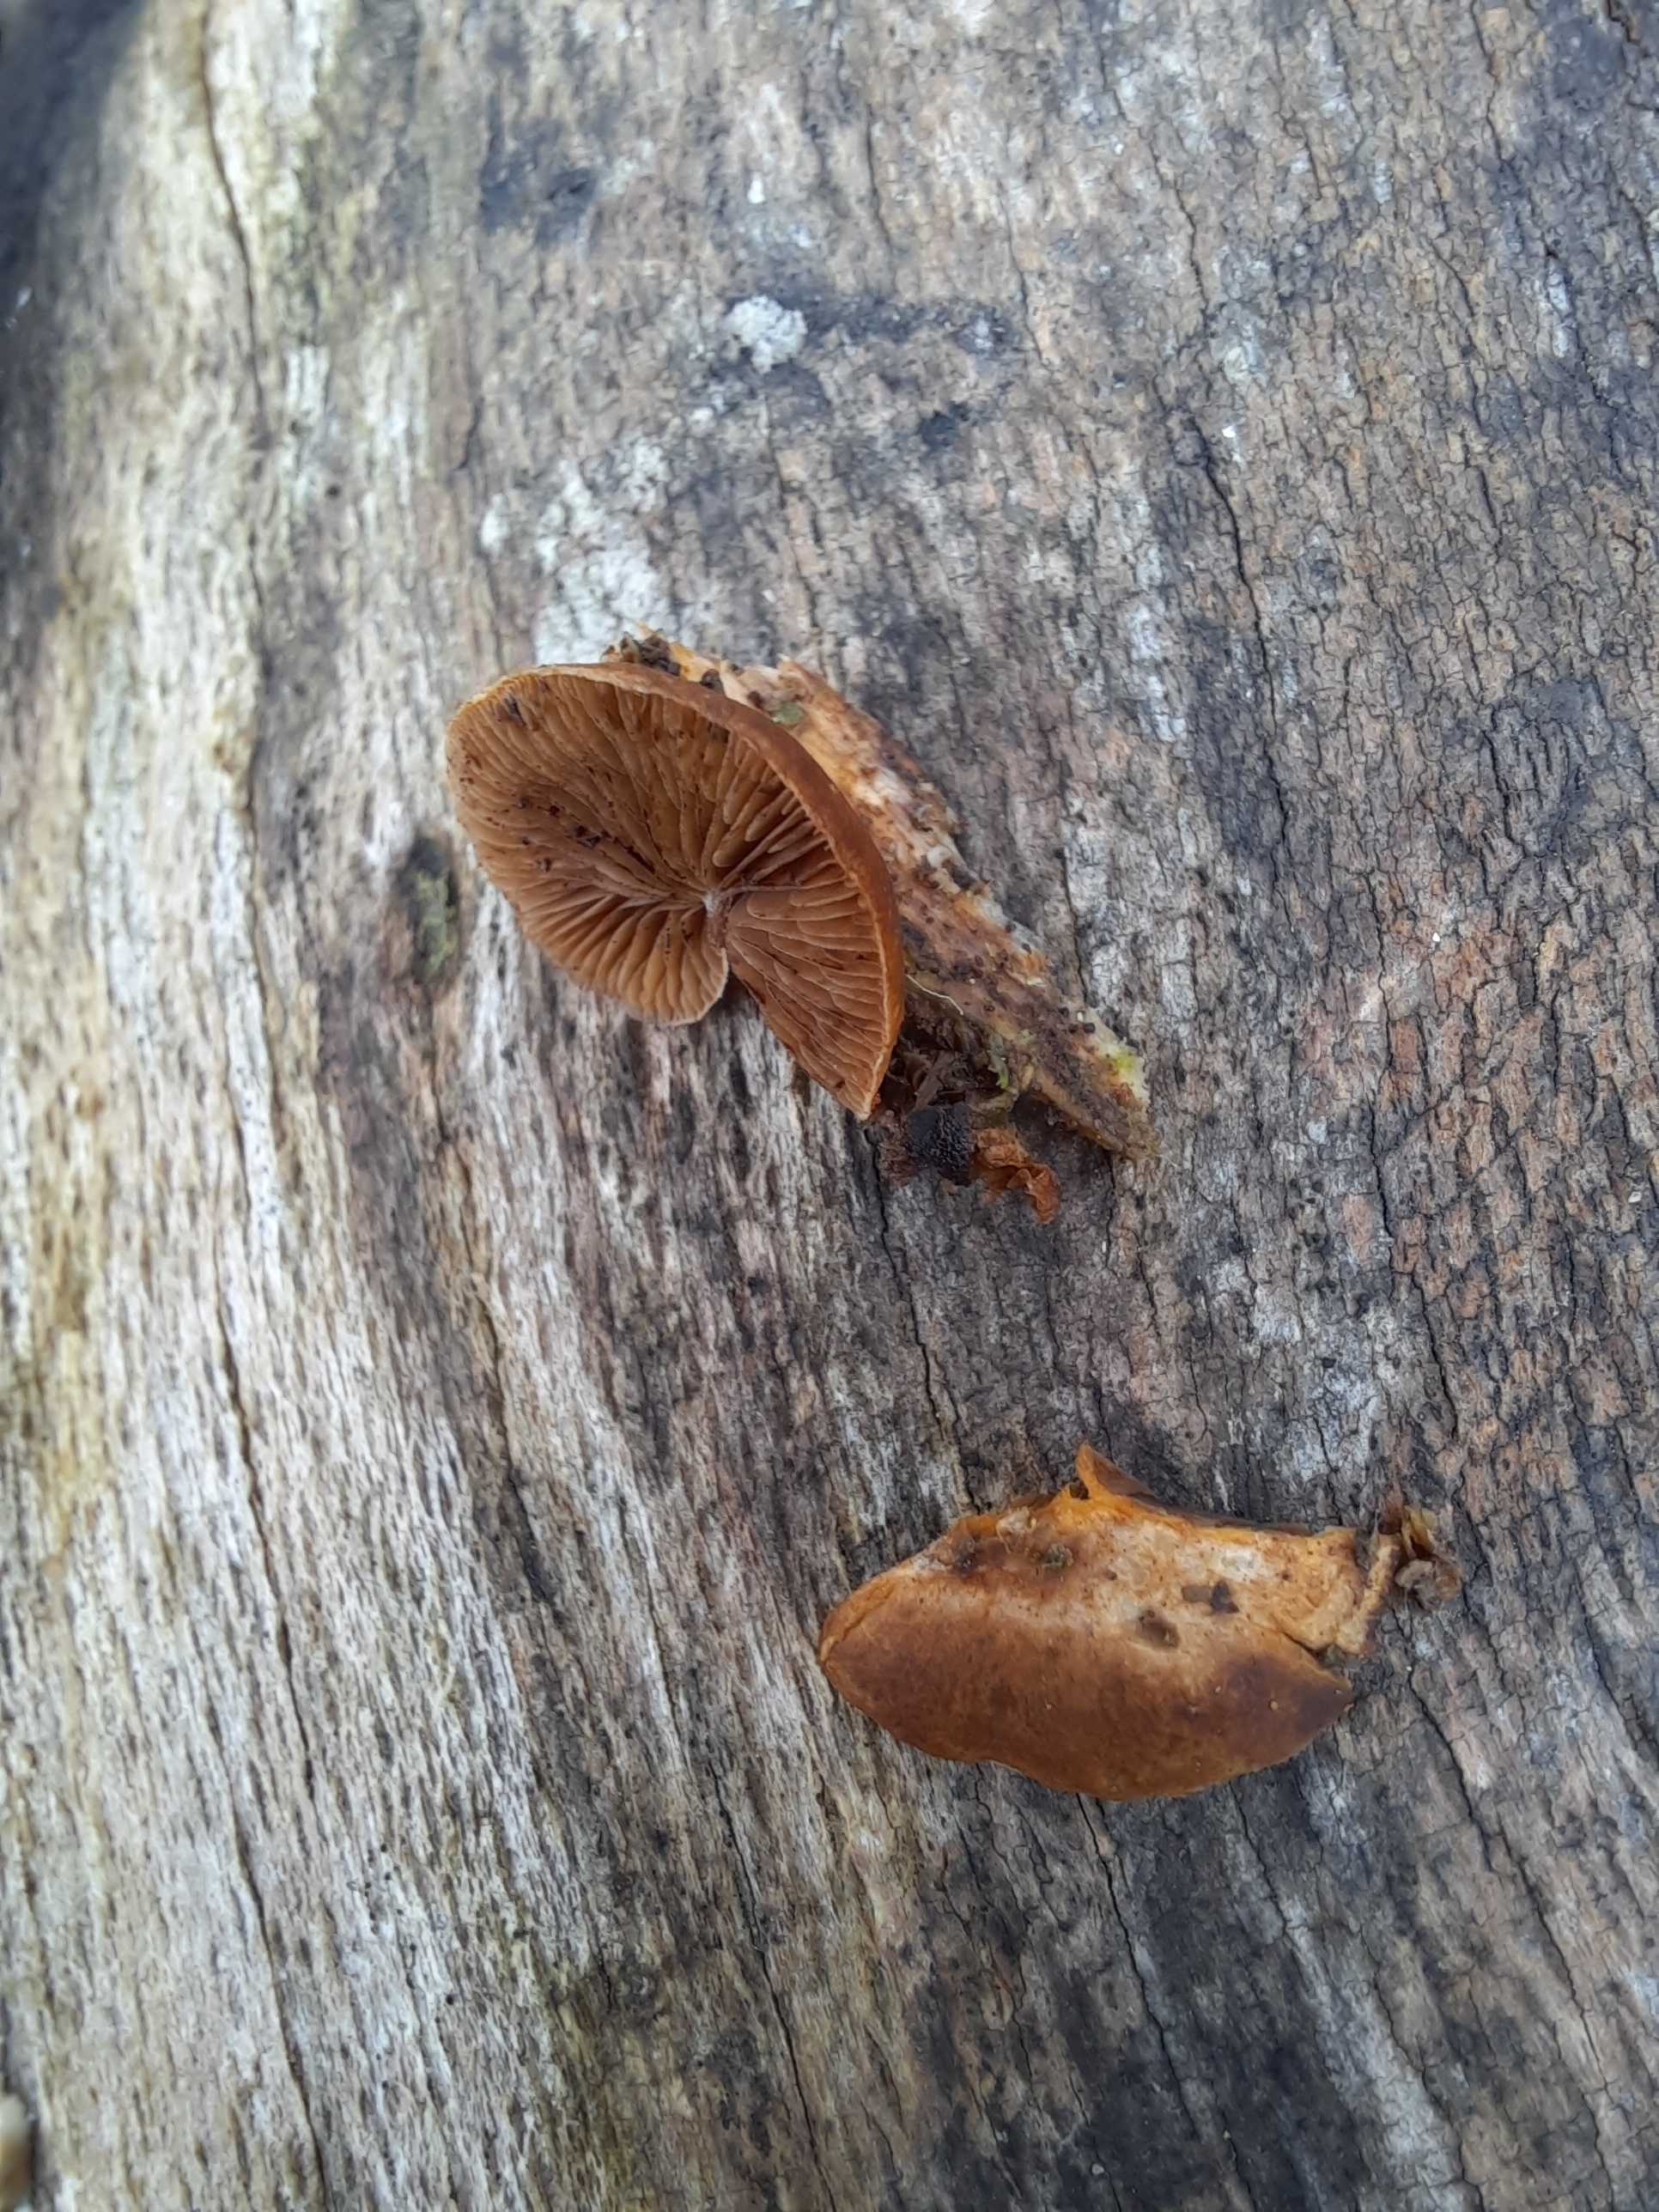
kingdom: Fungi
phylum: Basidiomycota
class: Agaricomycetes
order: Agaricales
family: Strophariaceae
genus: Deconica
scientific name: Deconica horizontalis
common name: ved-stråhat
